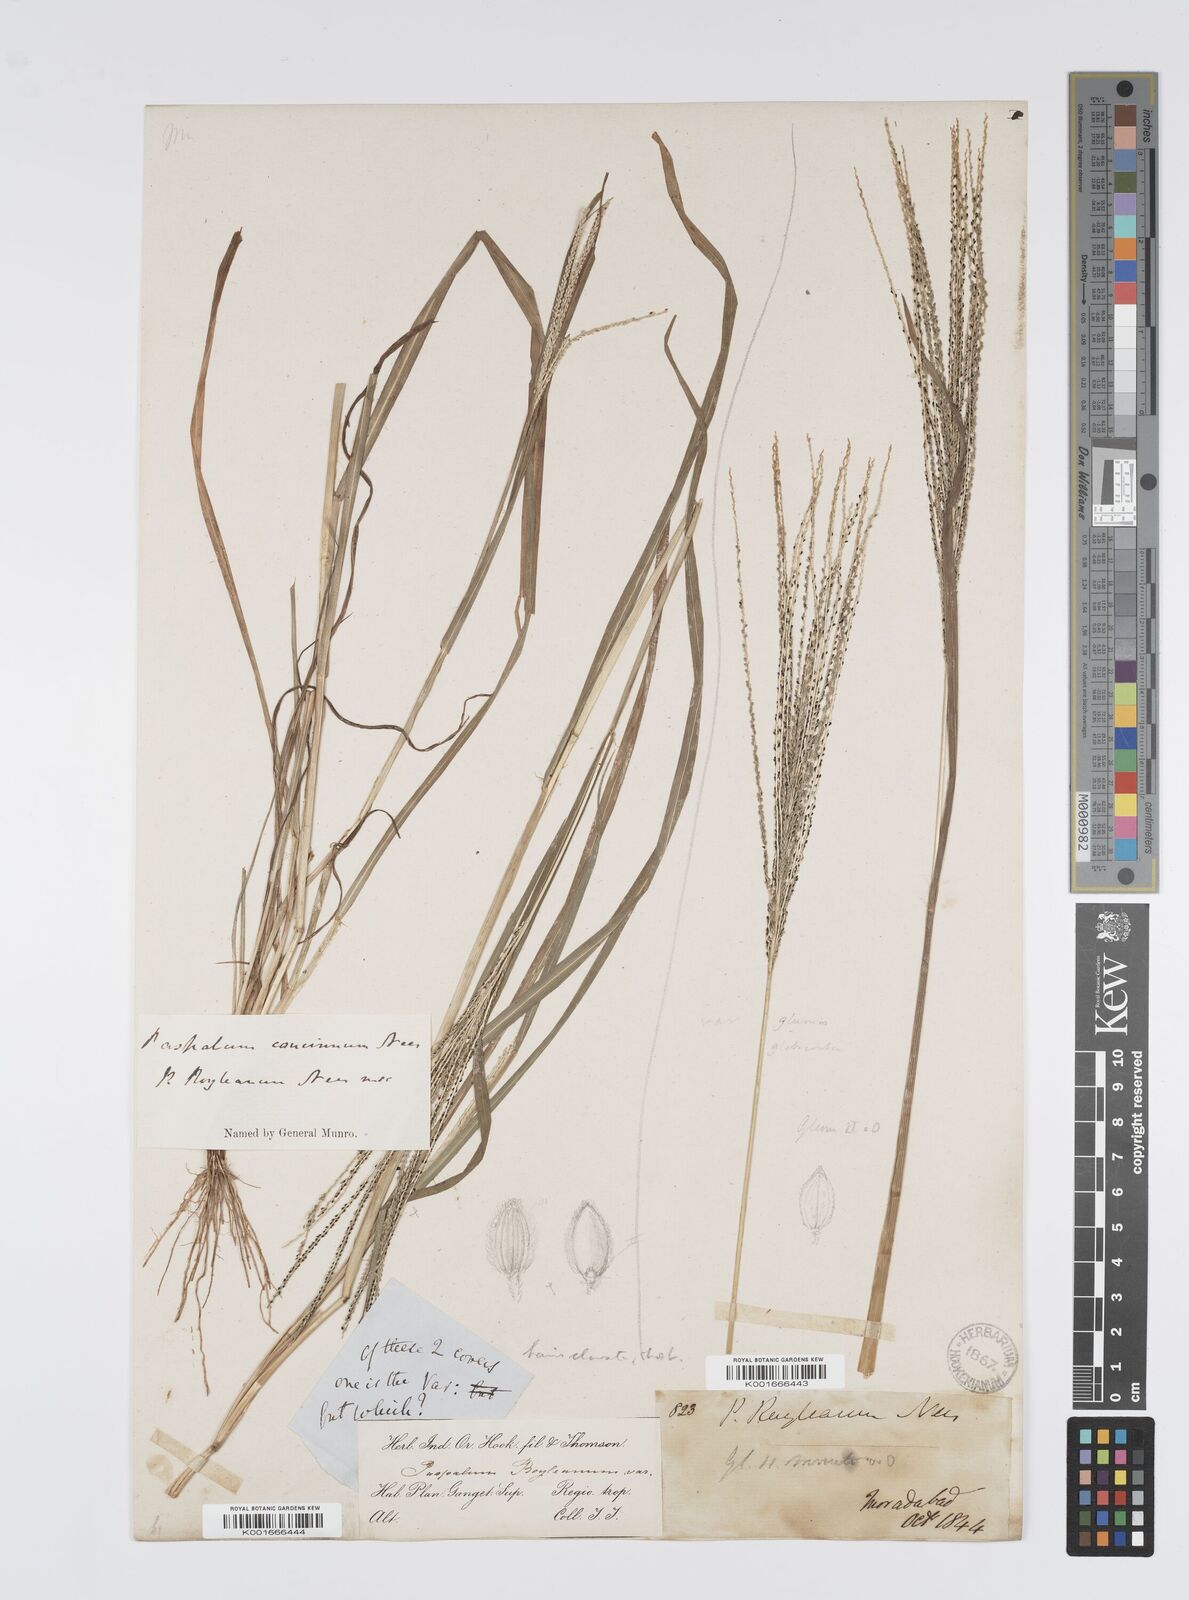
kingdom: Plantae
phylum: Tracheophyta
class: Liliopsida
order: Poales
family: Poaceae
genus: Digitaria
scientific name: Digitaria stricta
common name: Crabgrass
